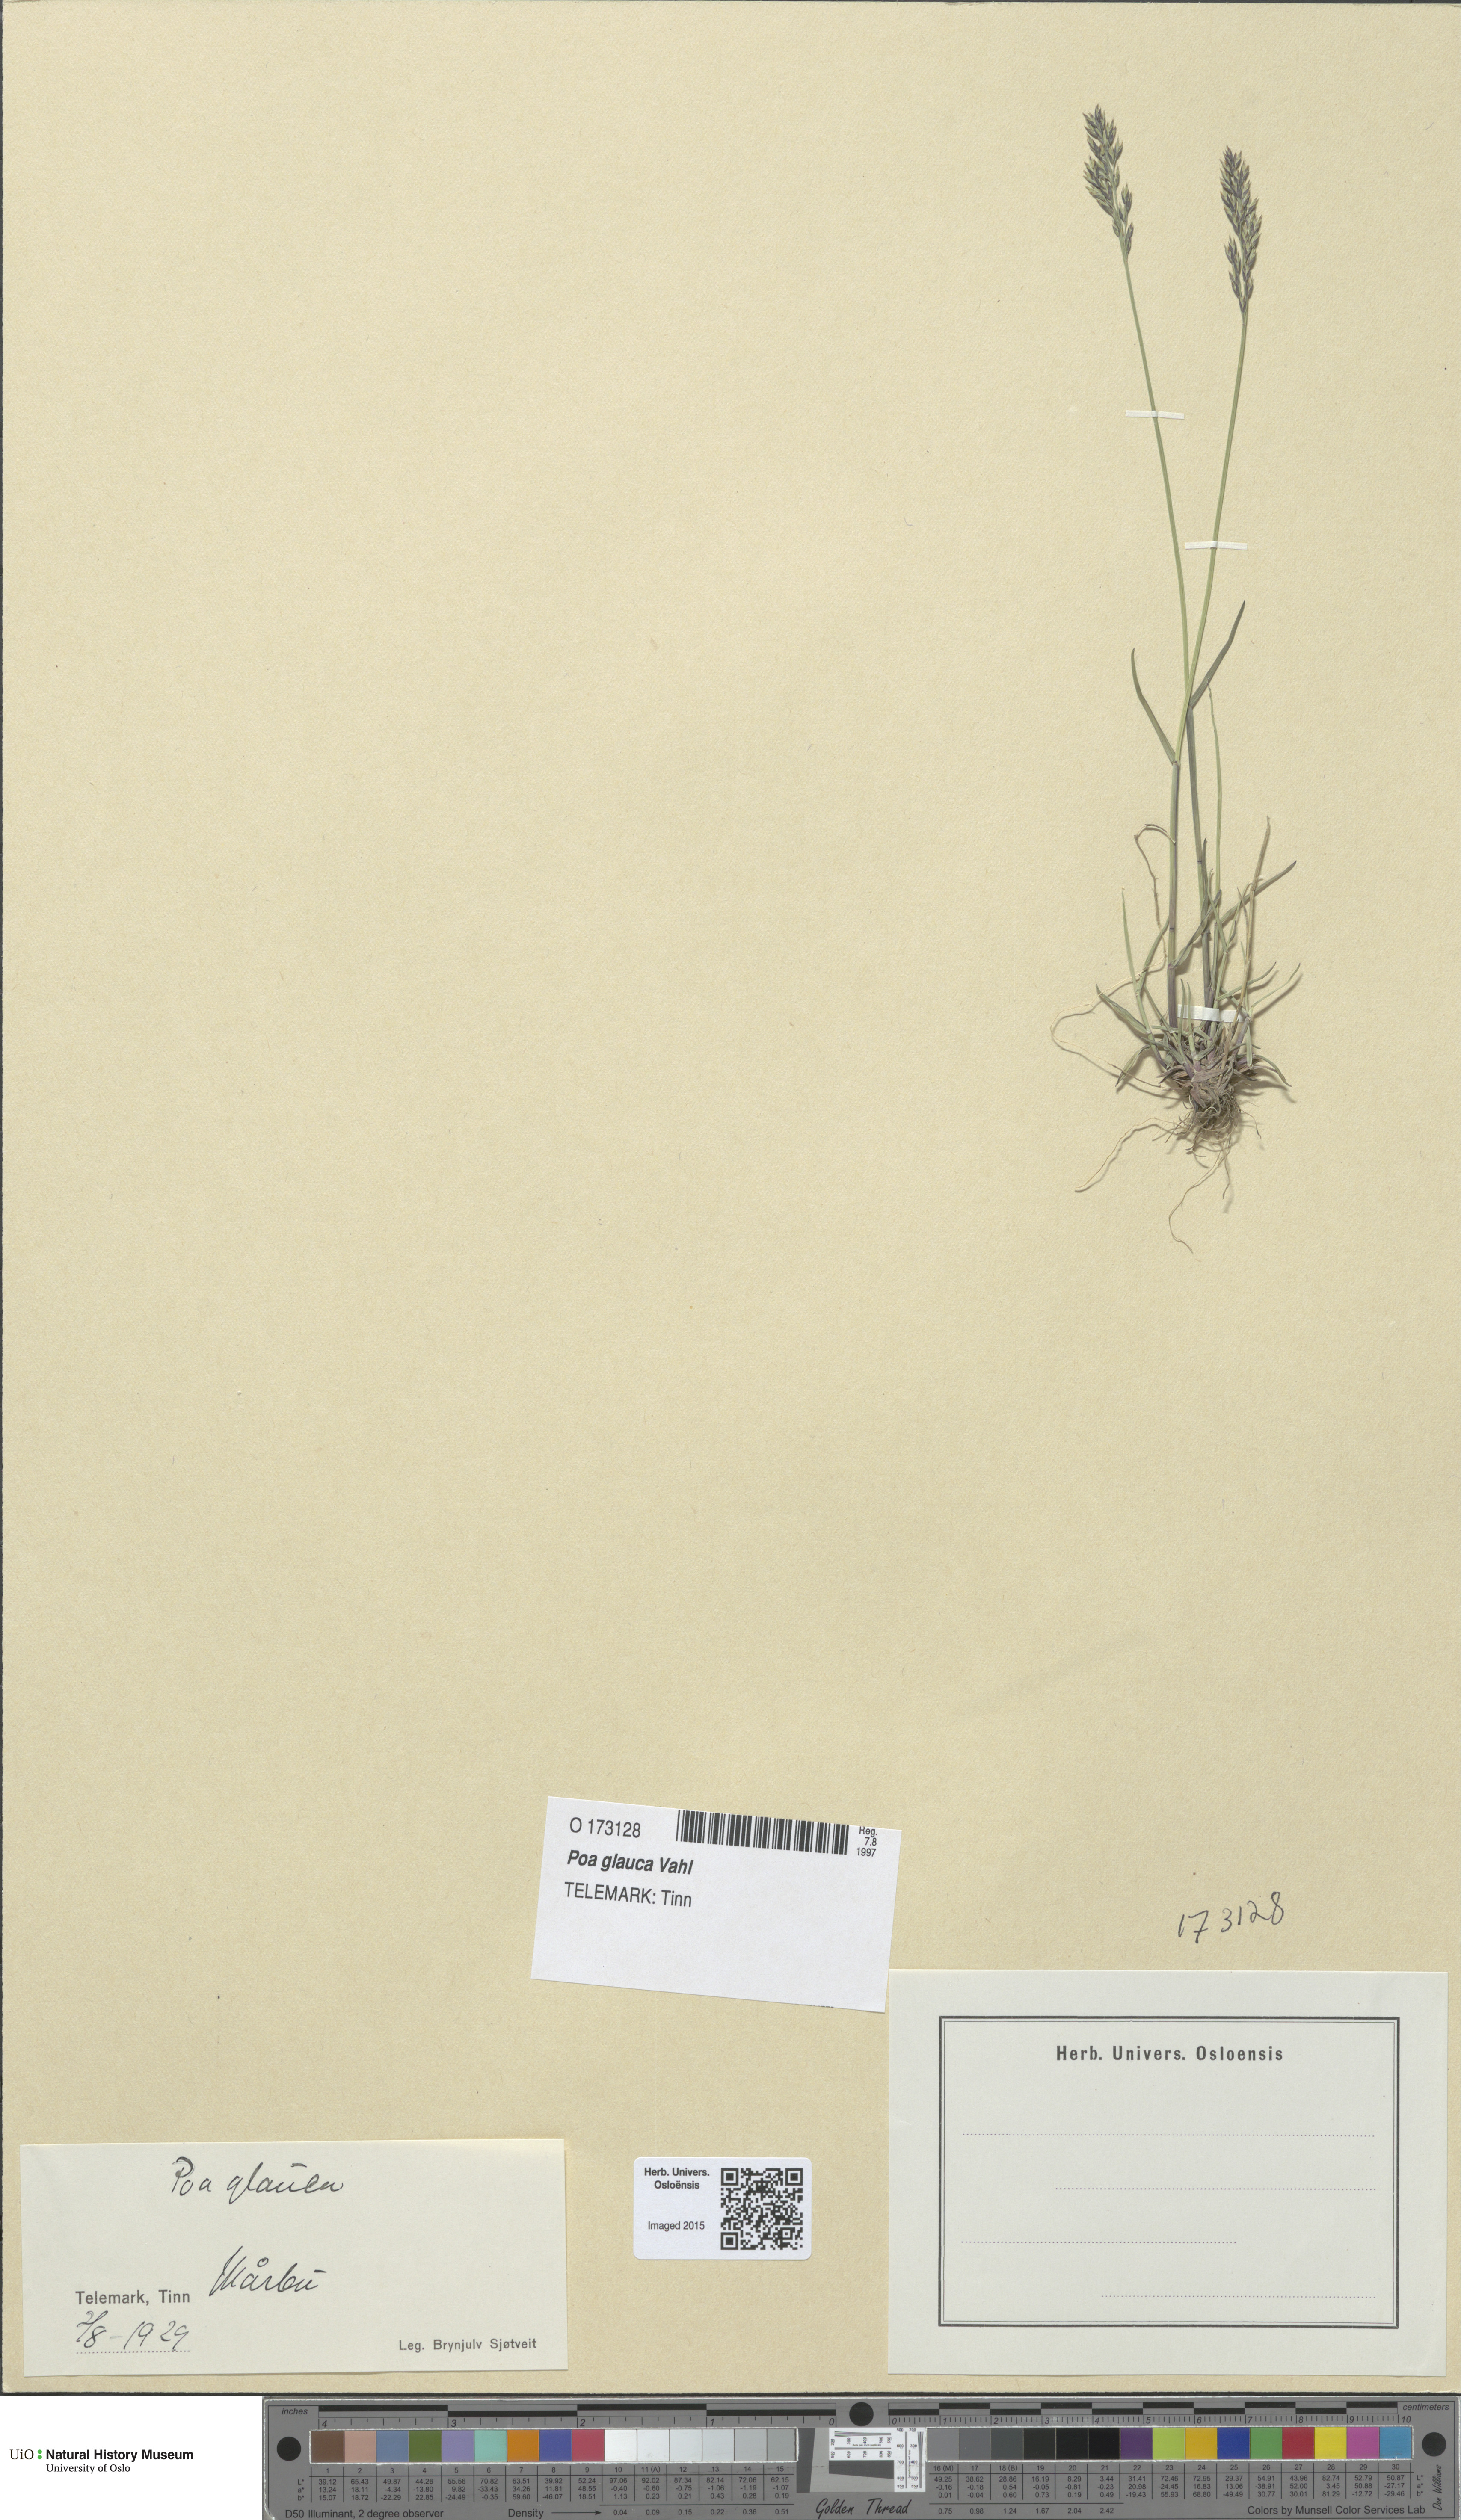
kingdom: Plantae
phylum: Tracheophyta
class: Liliopsida
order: Poales
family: Poaceae
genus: Poa
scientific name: Poa glauca
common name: Glaucous bluegrass
